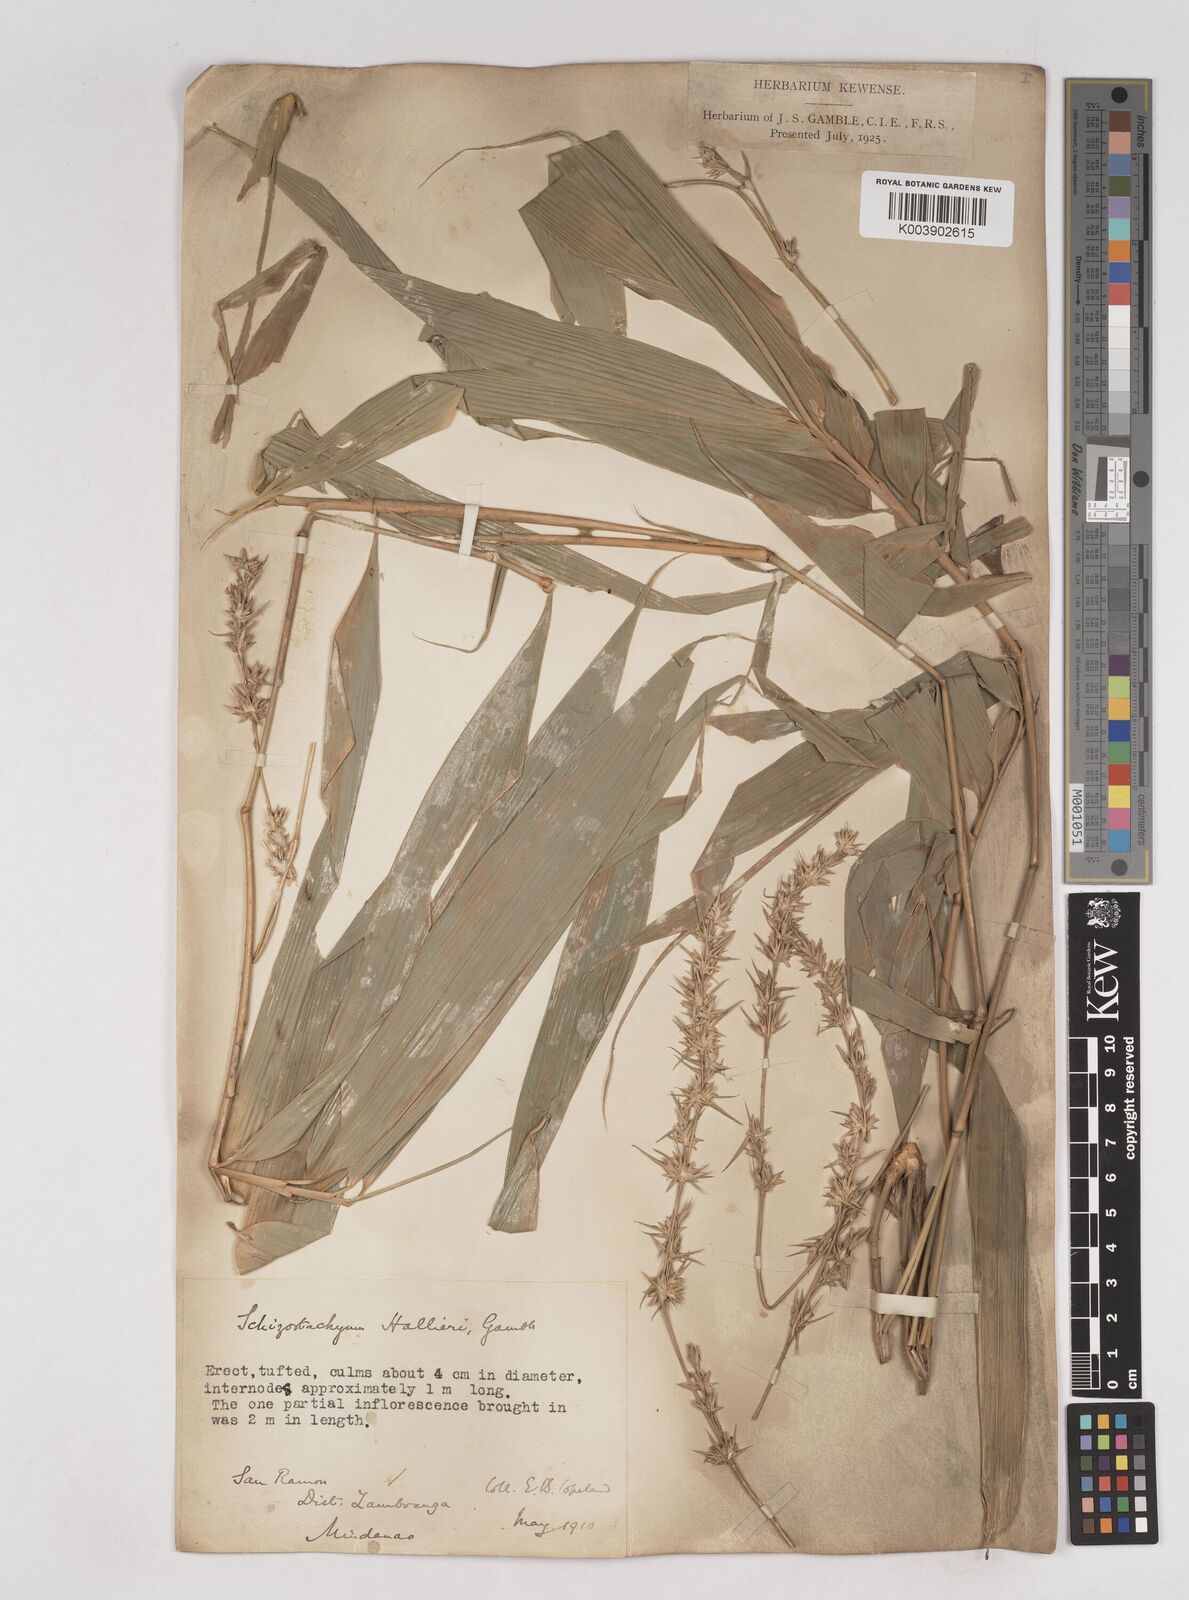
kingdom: Plantae
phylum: Tracheophyta
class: Liliopsida
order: Poales
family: Poaceae
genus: Schizostachyum
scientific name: Schizostachyum lima
